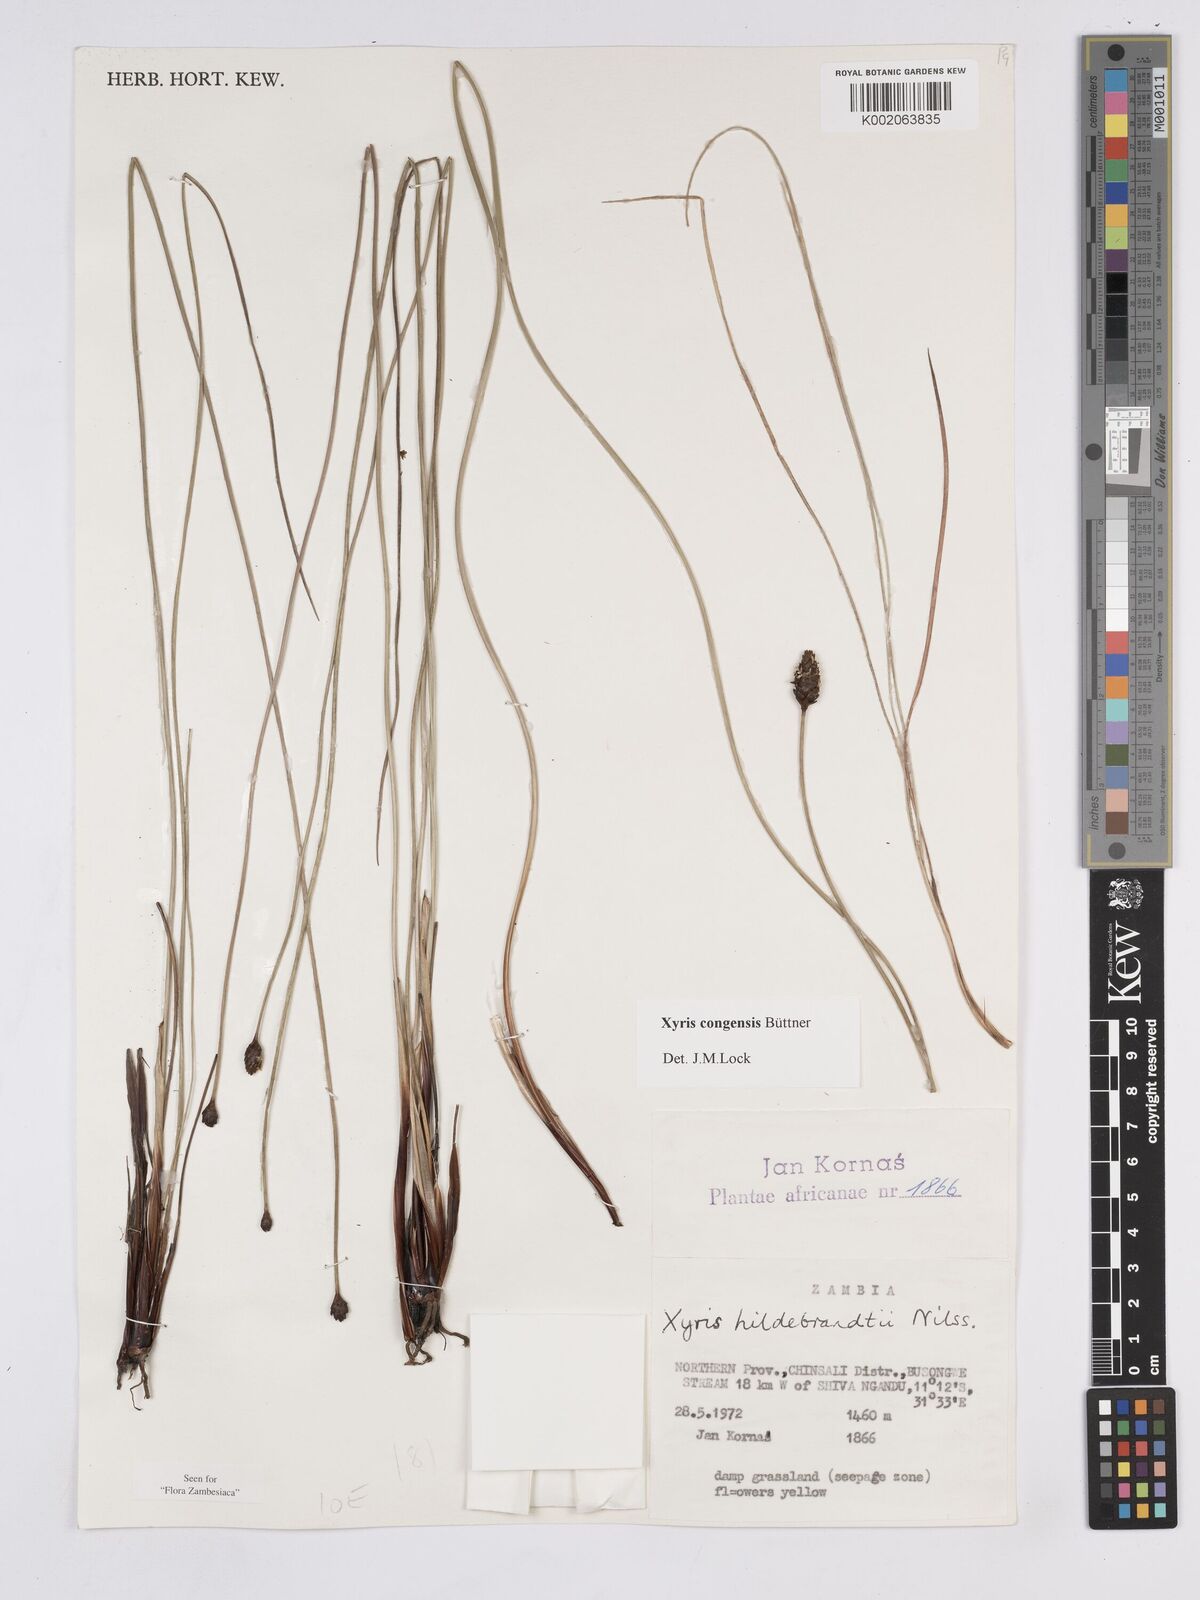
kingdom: Plantae
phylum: Tracheophyta
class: Liliopsida
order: Poales
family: Xyridaceae
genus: Xyris
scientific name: Xyris congensis
